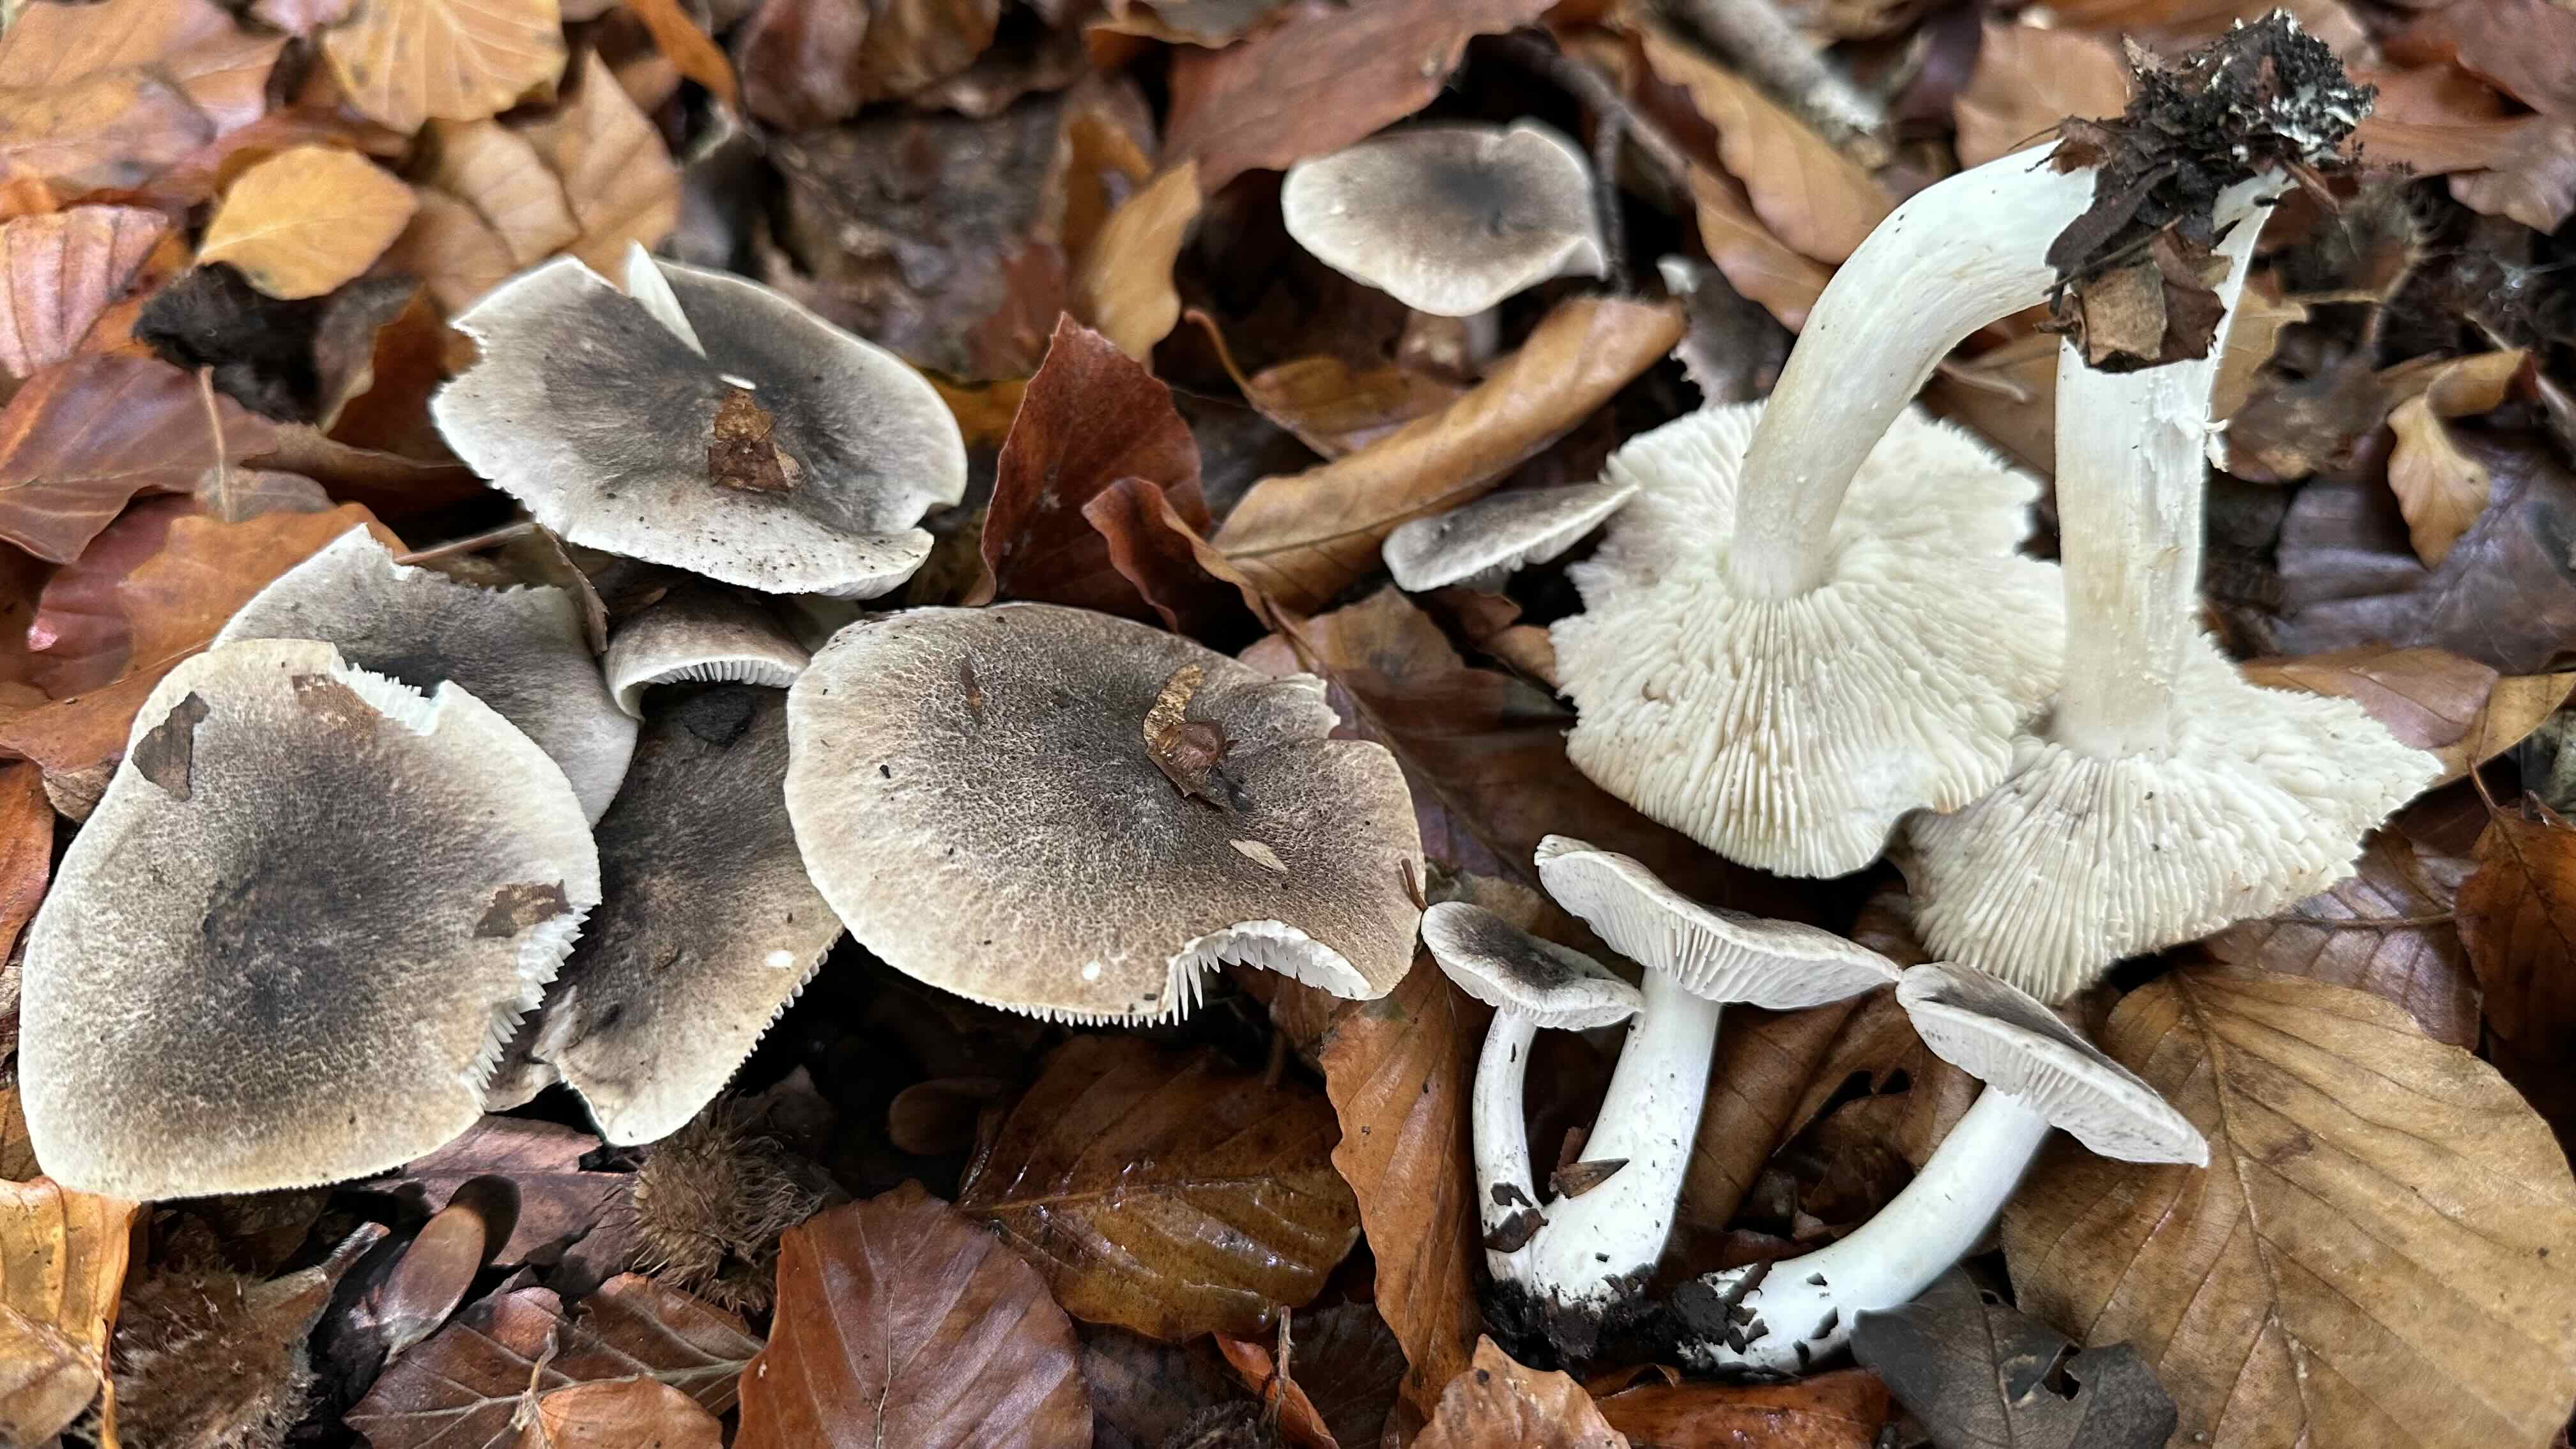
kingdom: Fungi
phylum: Basidiomycota
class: Agaricomycetes
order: Agaricales
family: Tricholomataceae
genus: Tricholoma
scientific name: Tricholoma orirubens
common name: rødbladet ridderhat
